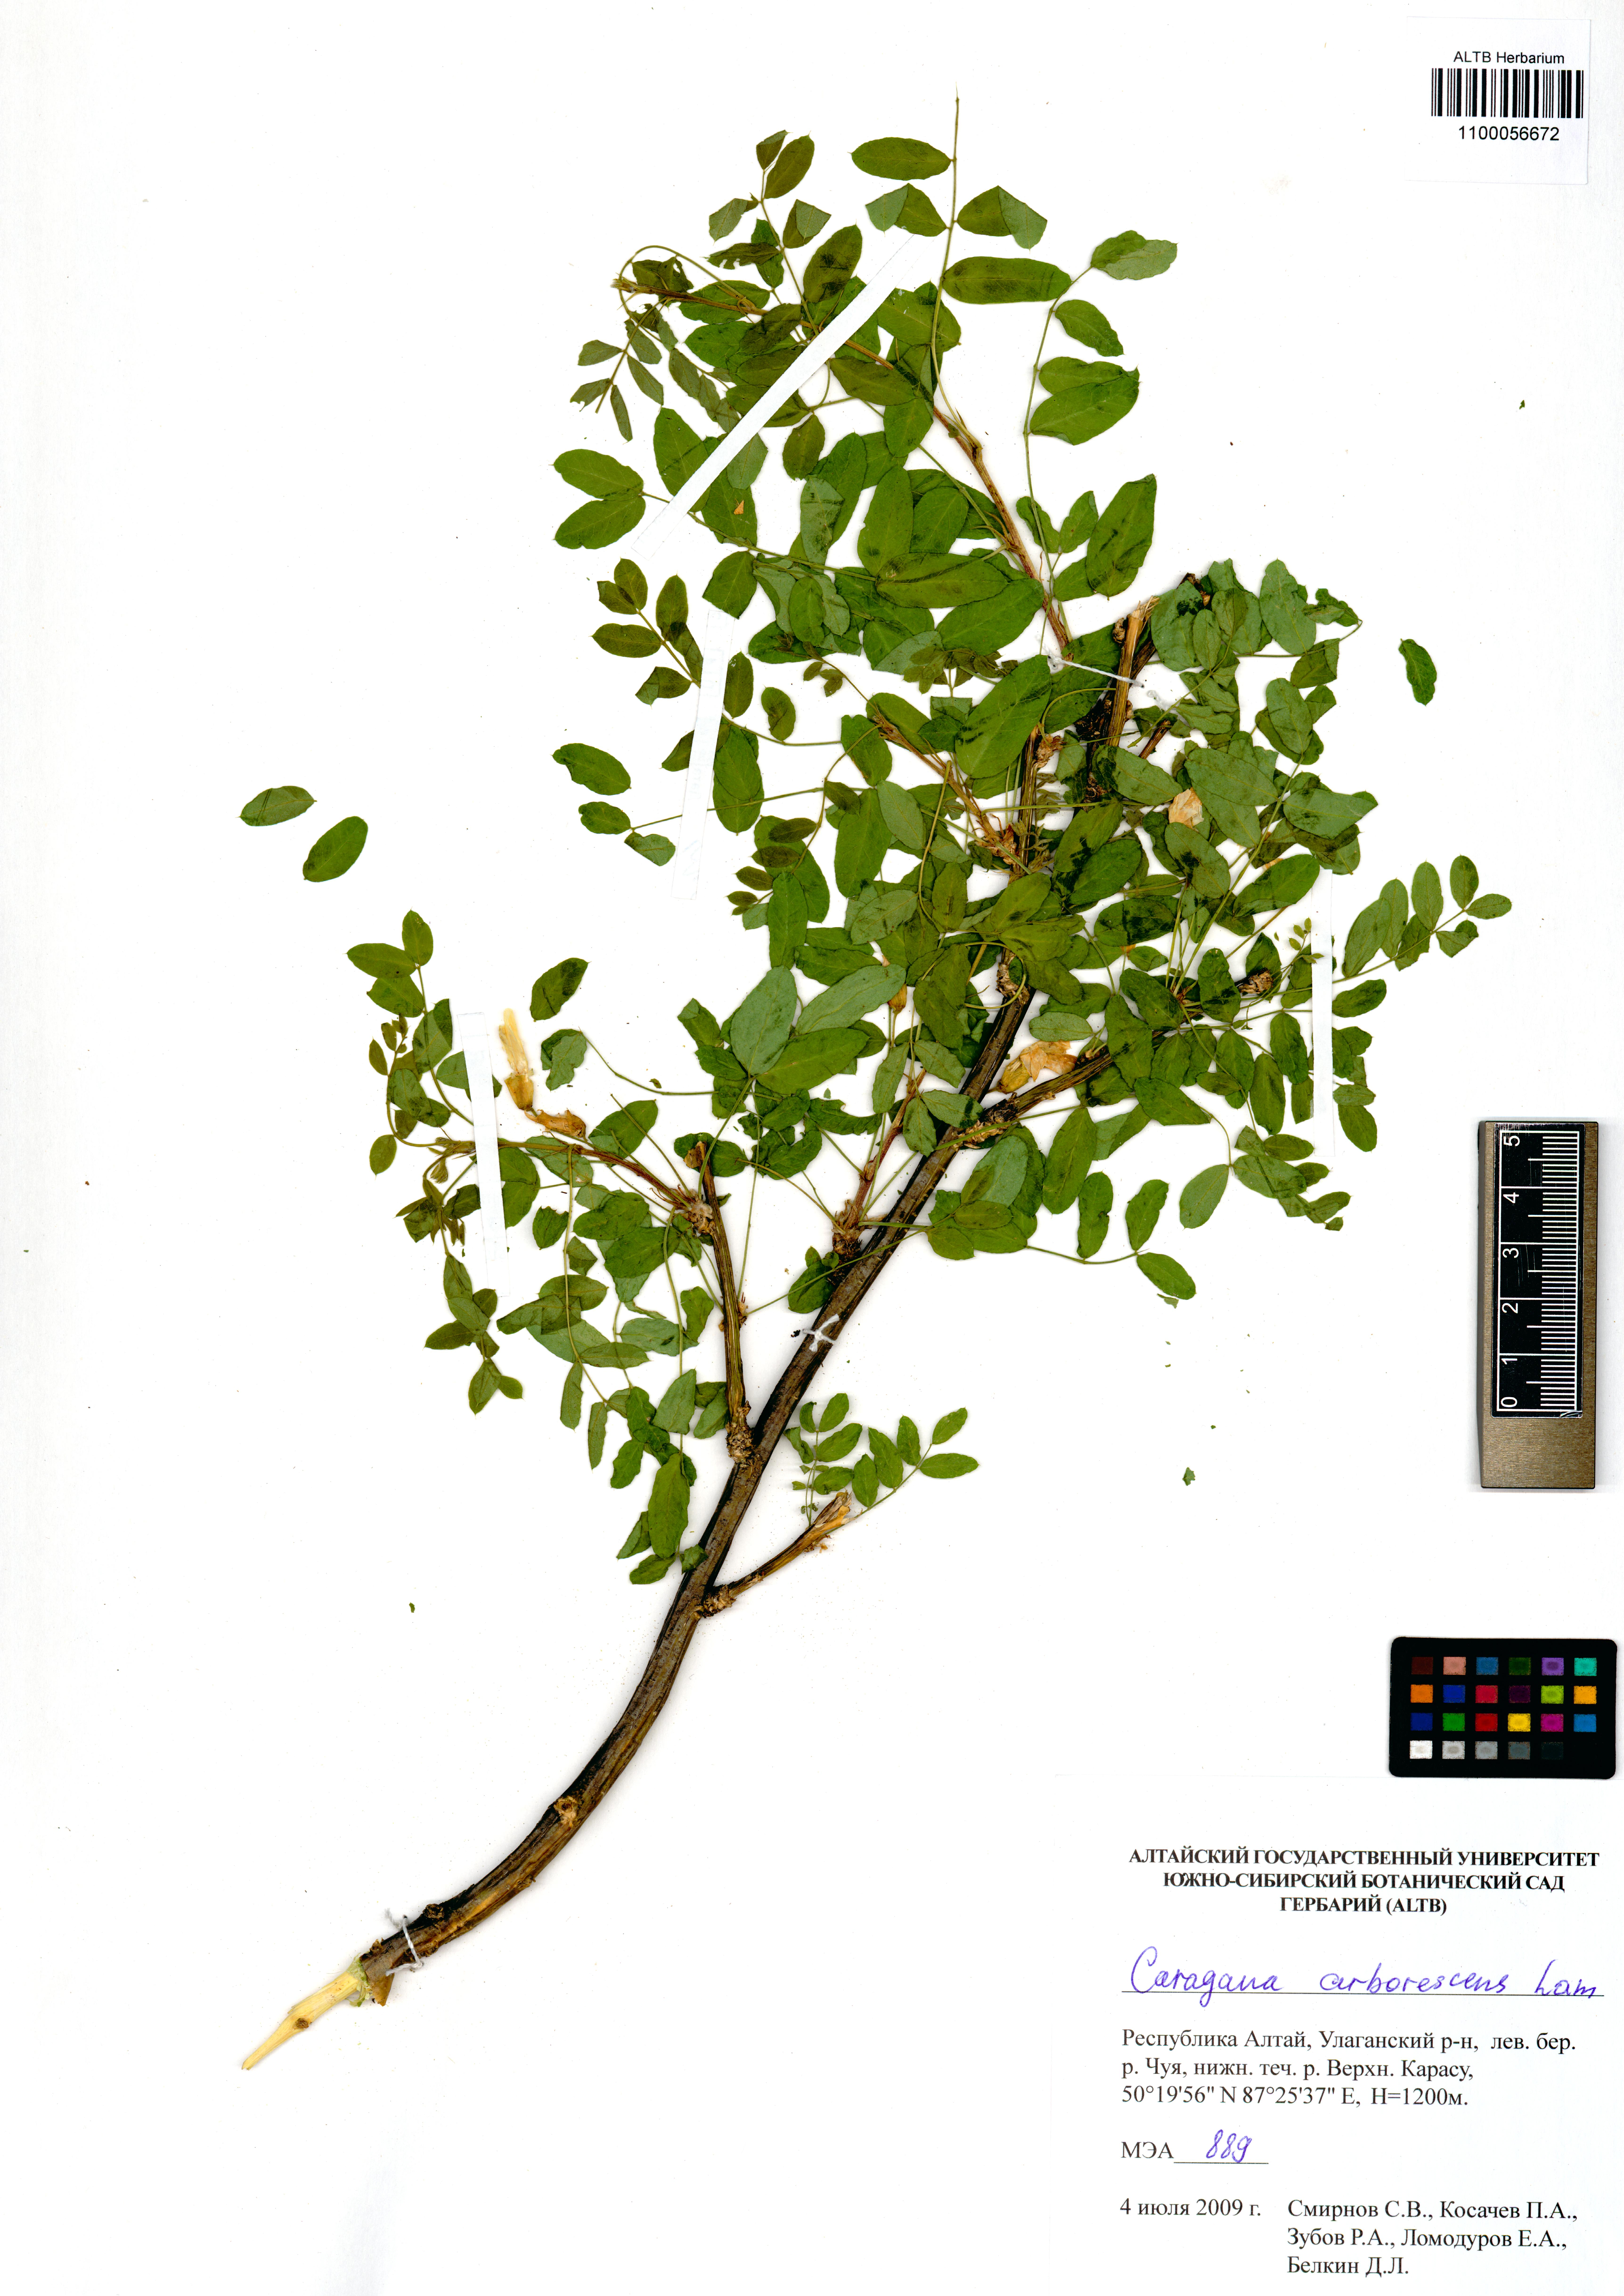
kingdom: Plantae
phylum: Tracheophyta
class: Magnoliopsida
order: Fabales
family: Fabaceae
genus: Caragana
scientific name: Caragana arborescens
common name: Siberian peashrub
